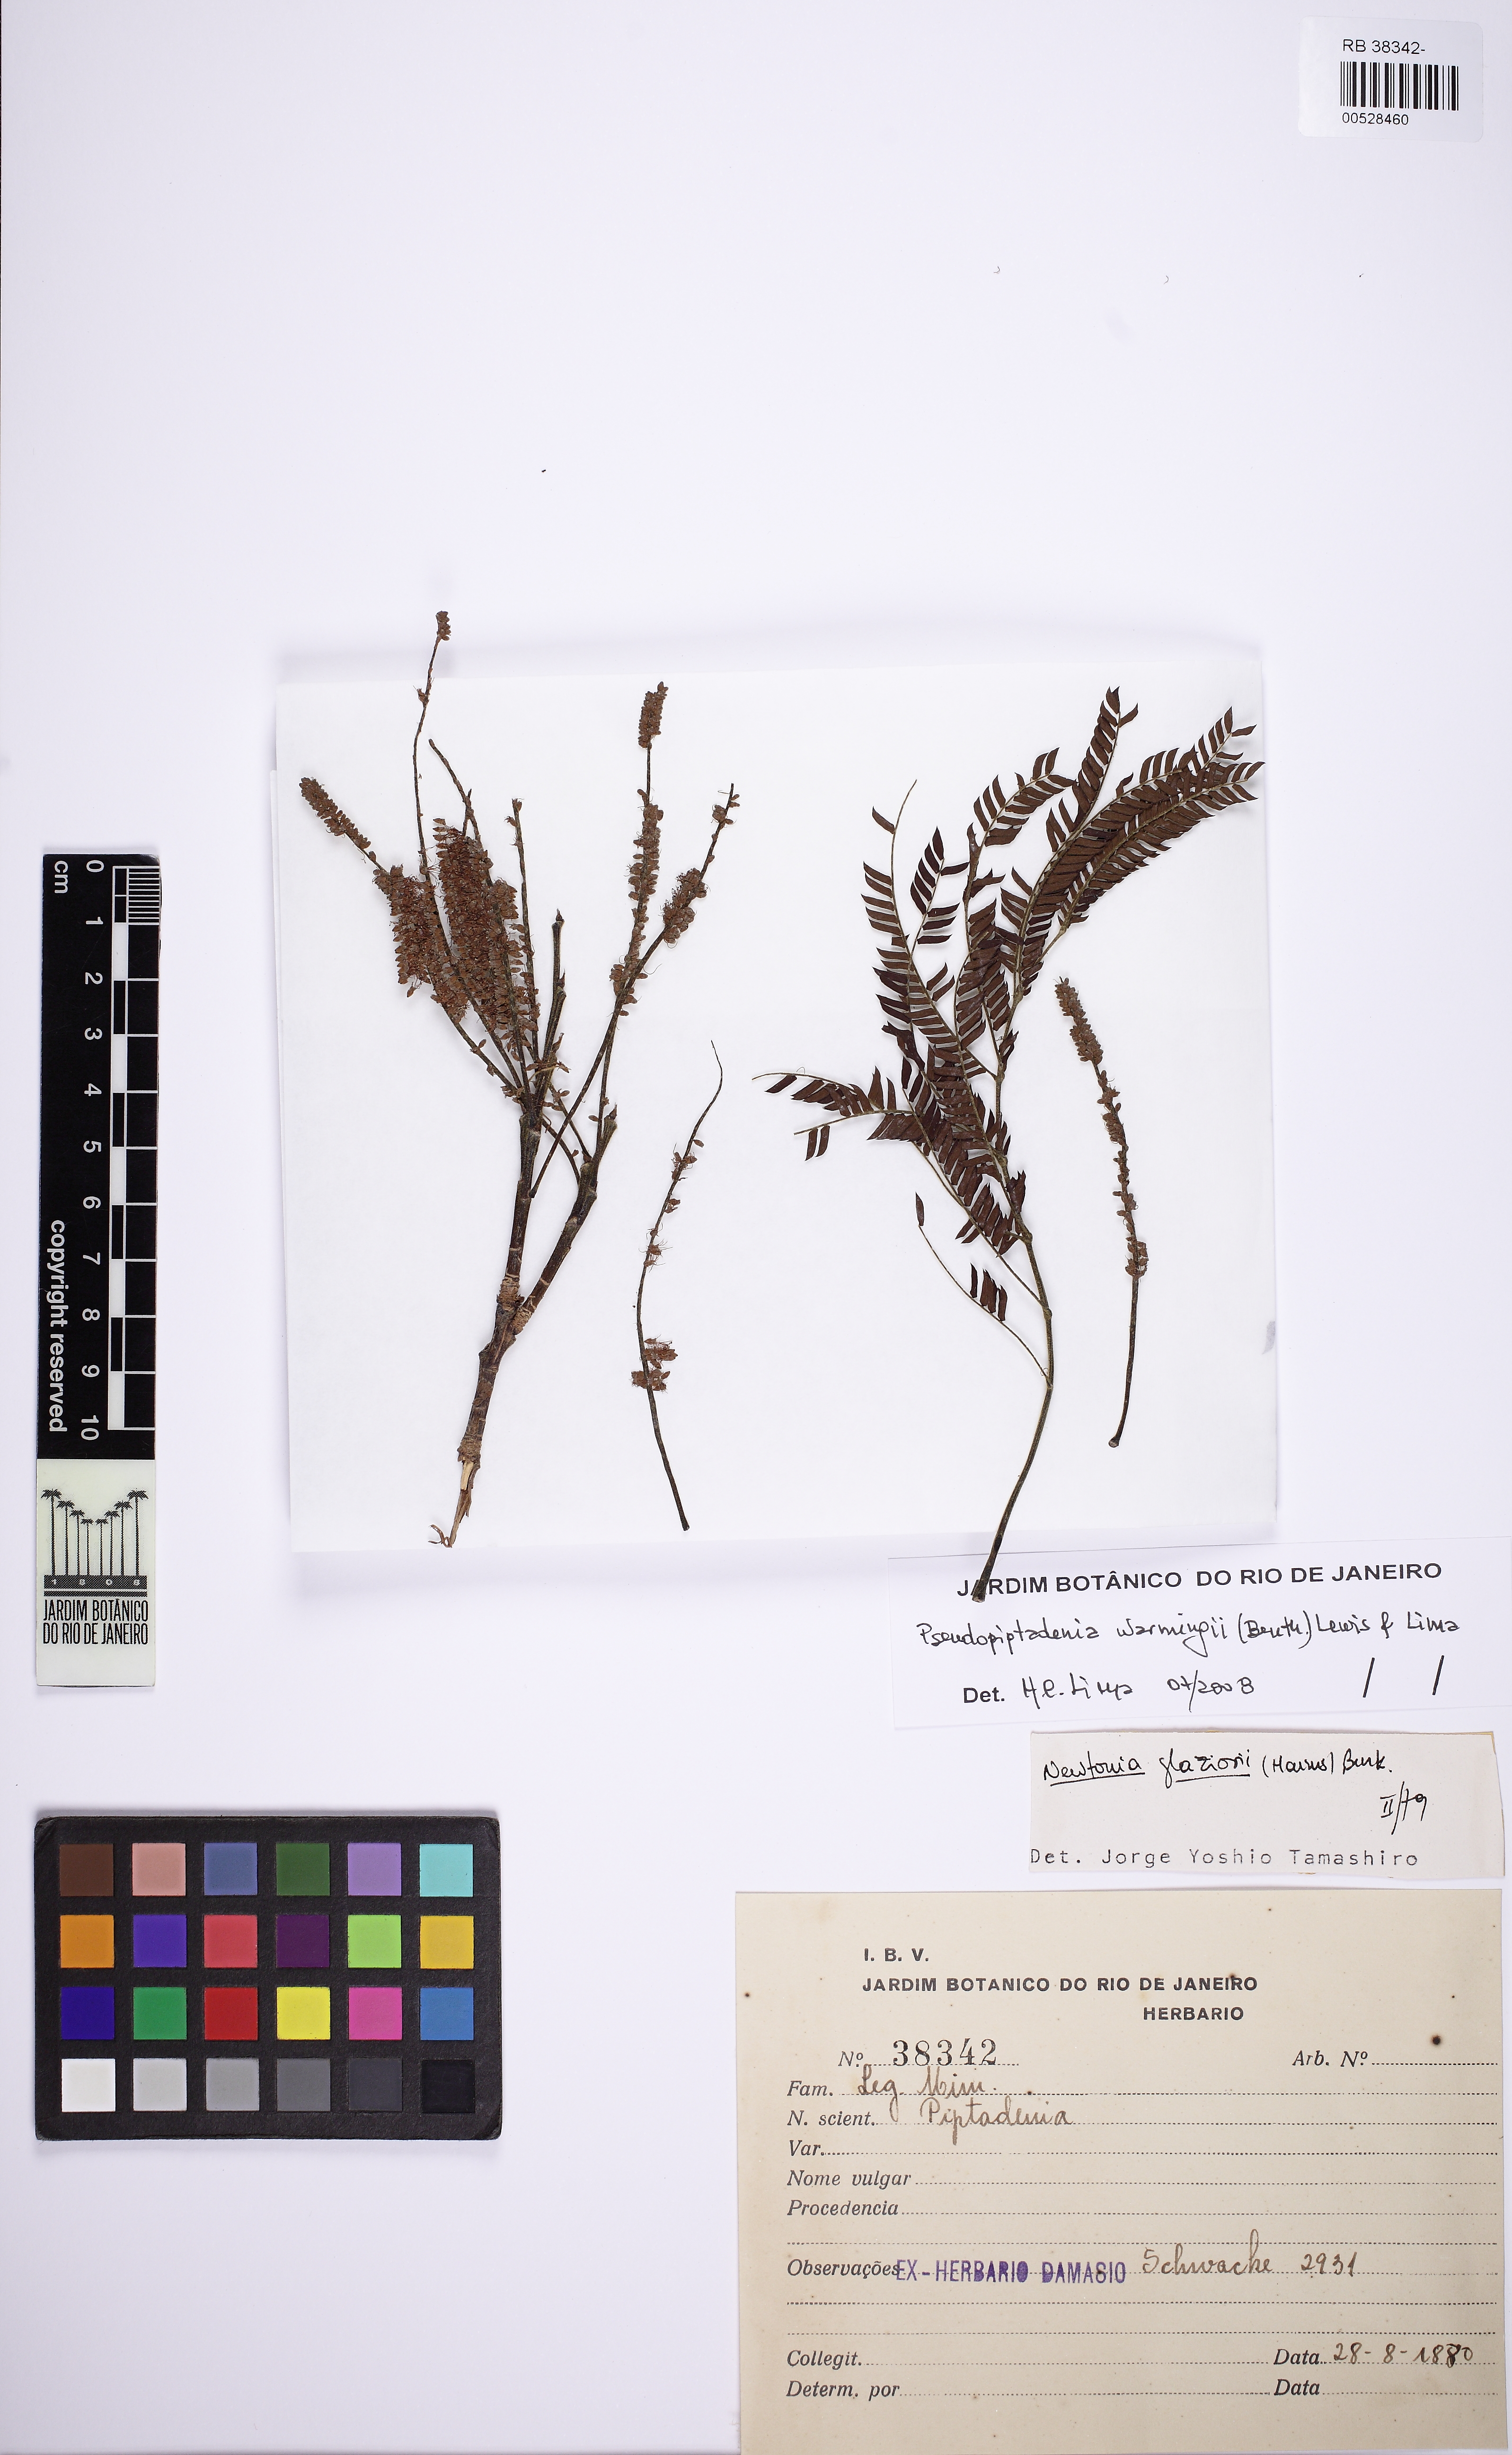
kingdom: Plantae
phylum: Tracheophyta
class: Magnoliopsida
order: Fabales
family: Fabaceae
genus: Pseudopiptadenia
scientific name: Pseudopiptadenia warmingii
